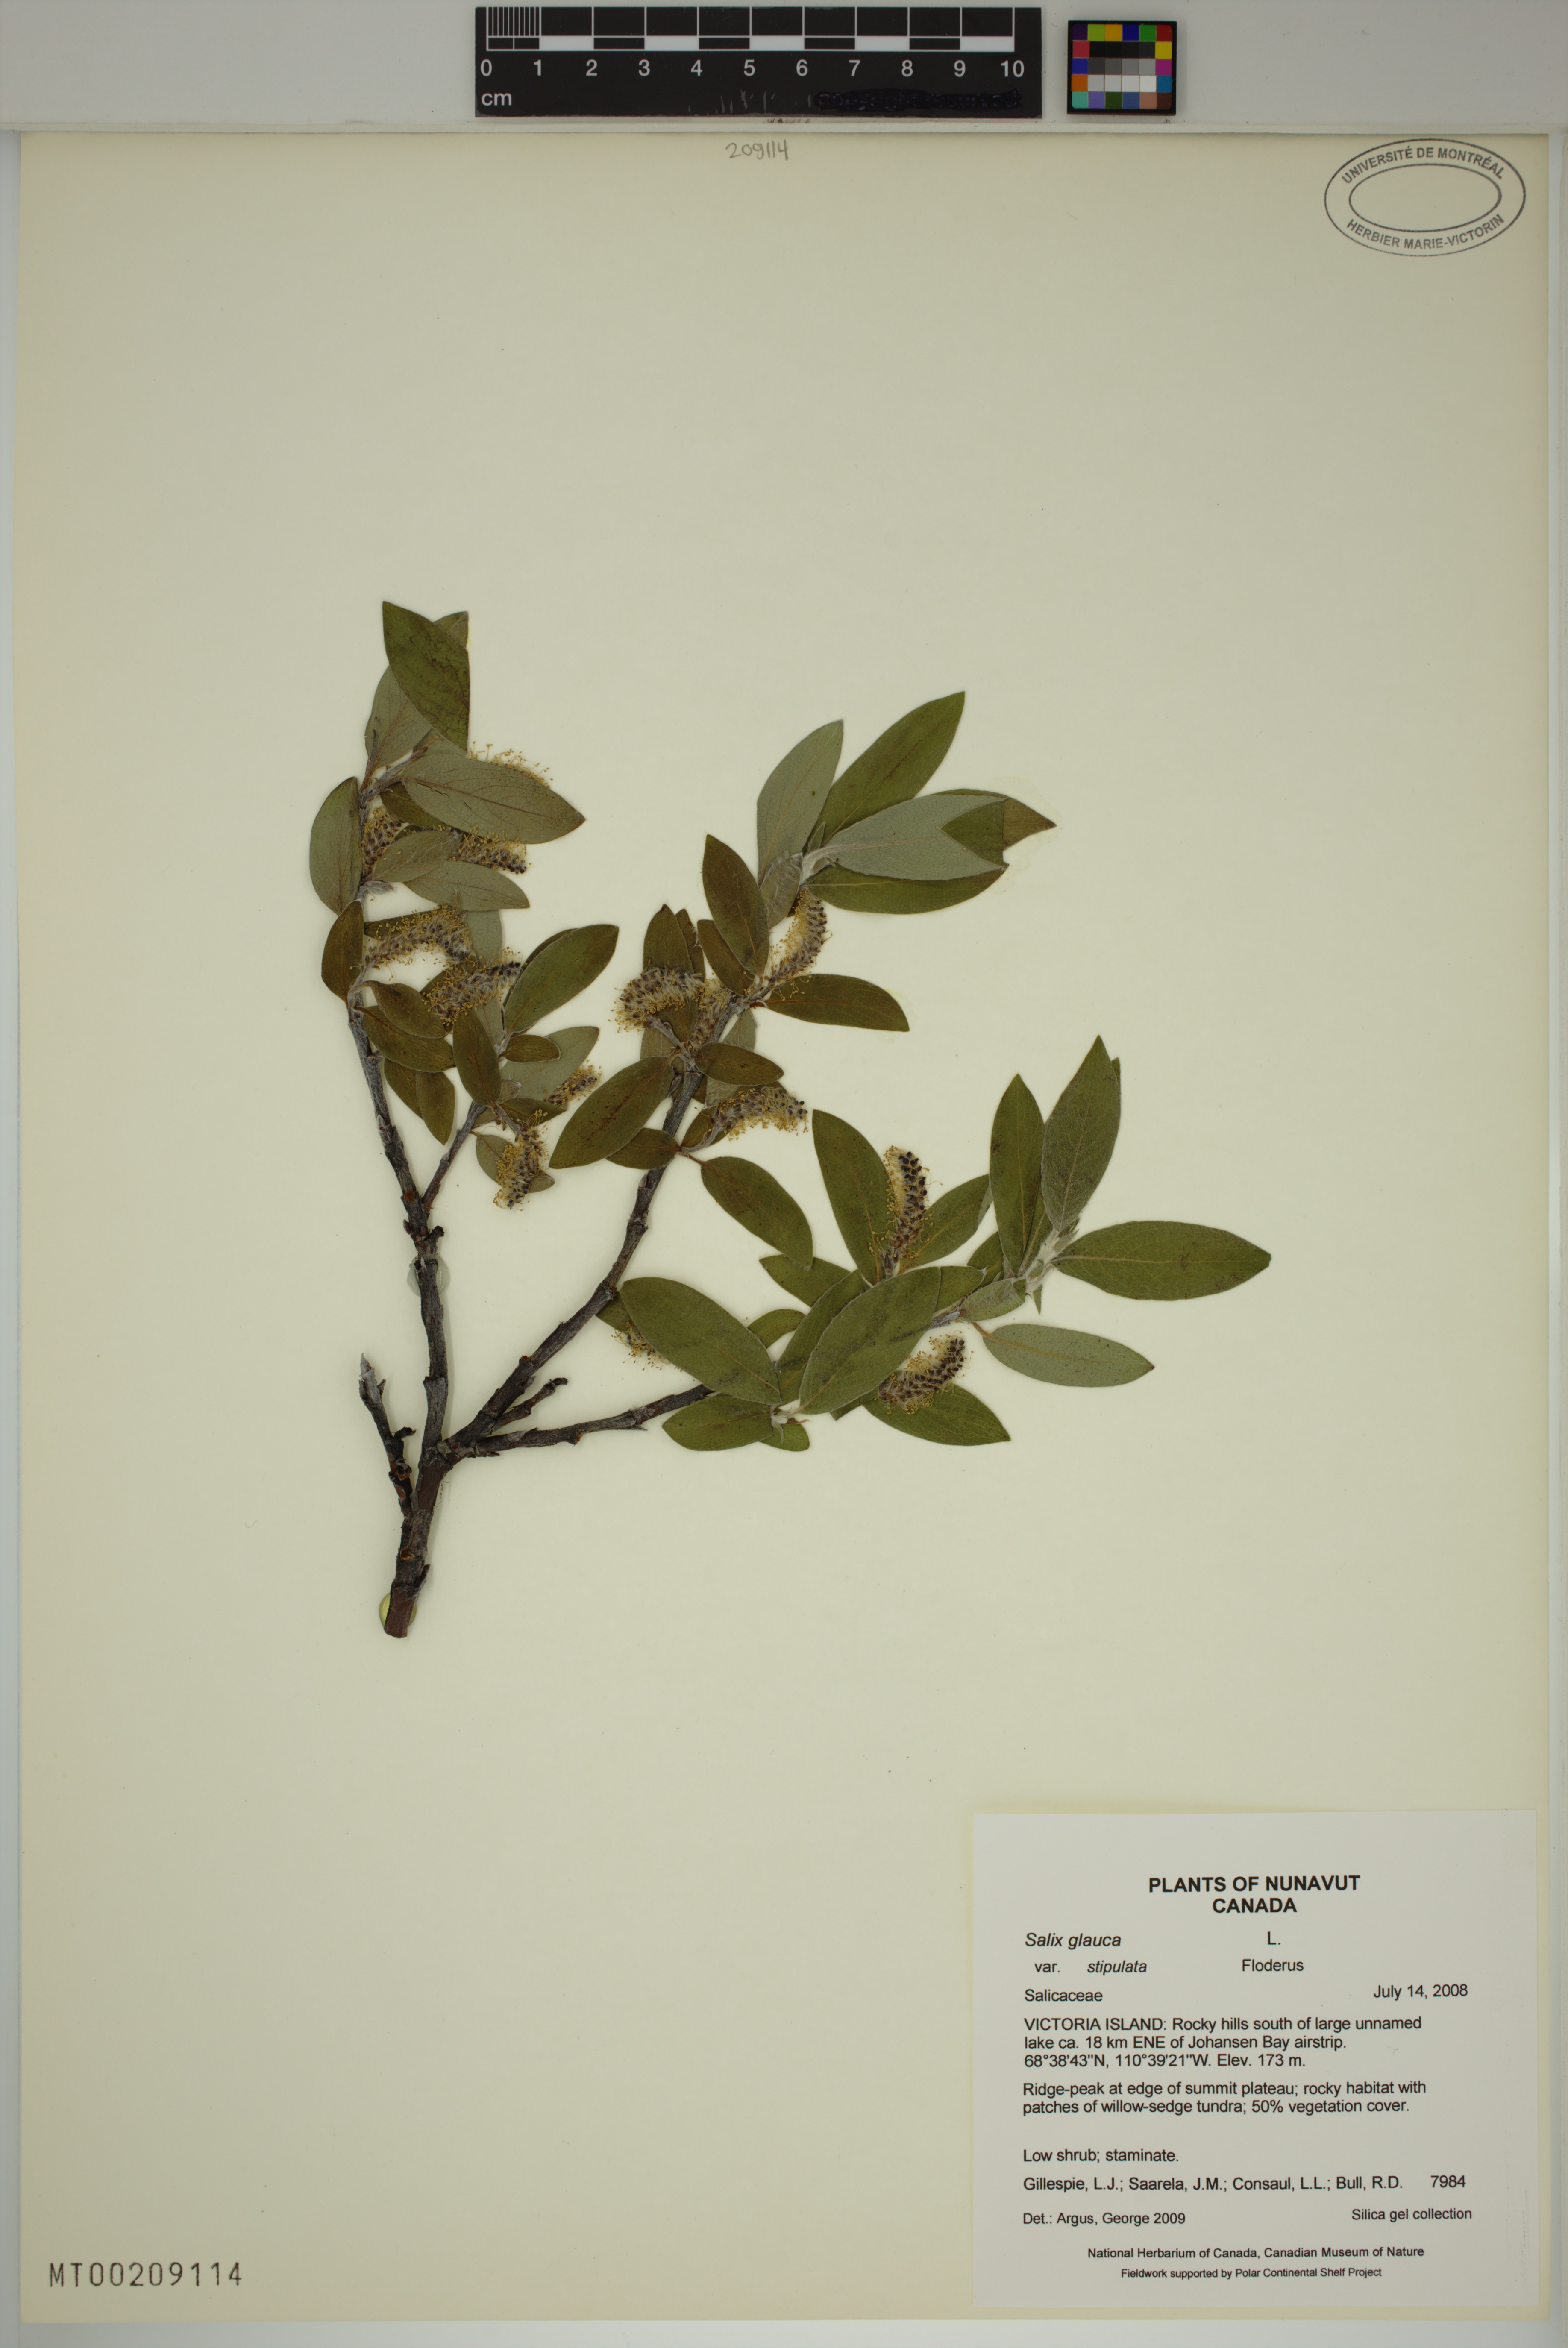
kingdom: Plantae
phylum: Tracheophyta
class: Magnoliopsida
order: Malpighiales
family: Salicaceae
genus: Salix
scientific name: Salix glauca
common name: Glaucous willow
